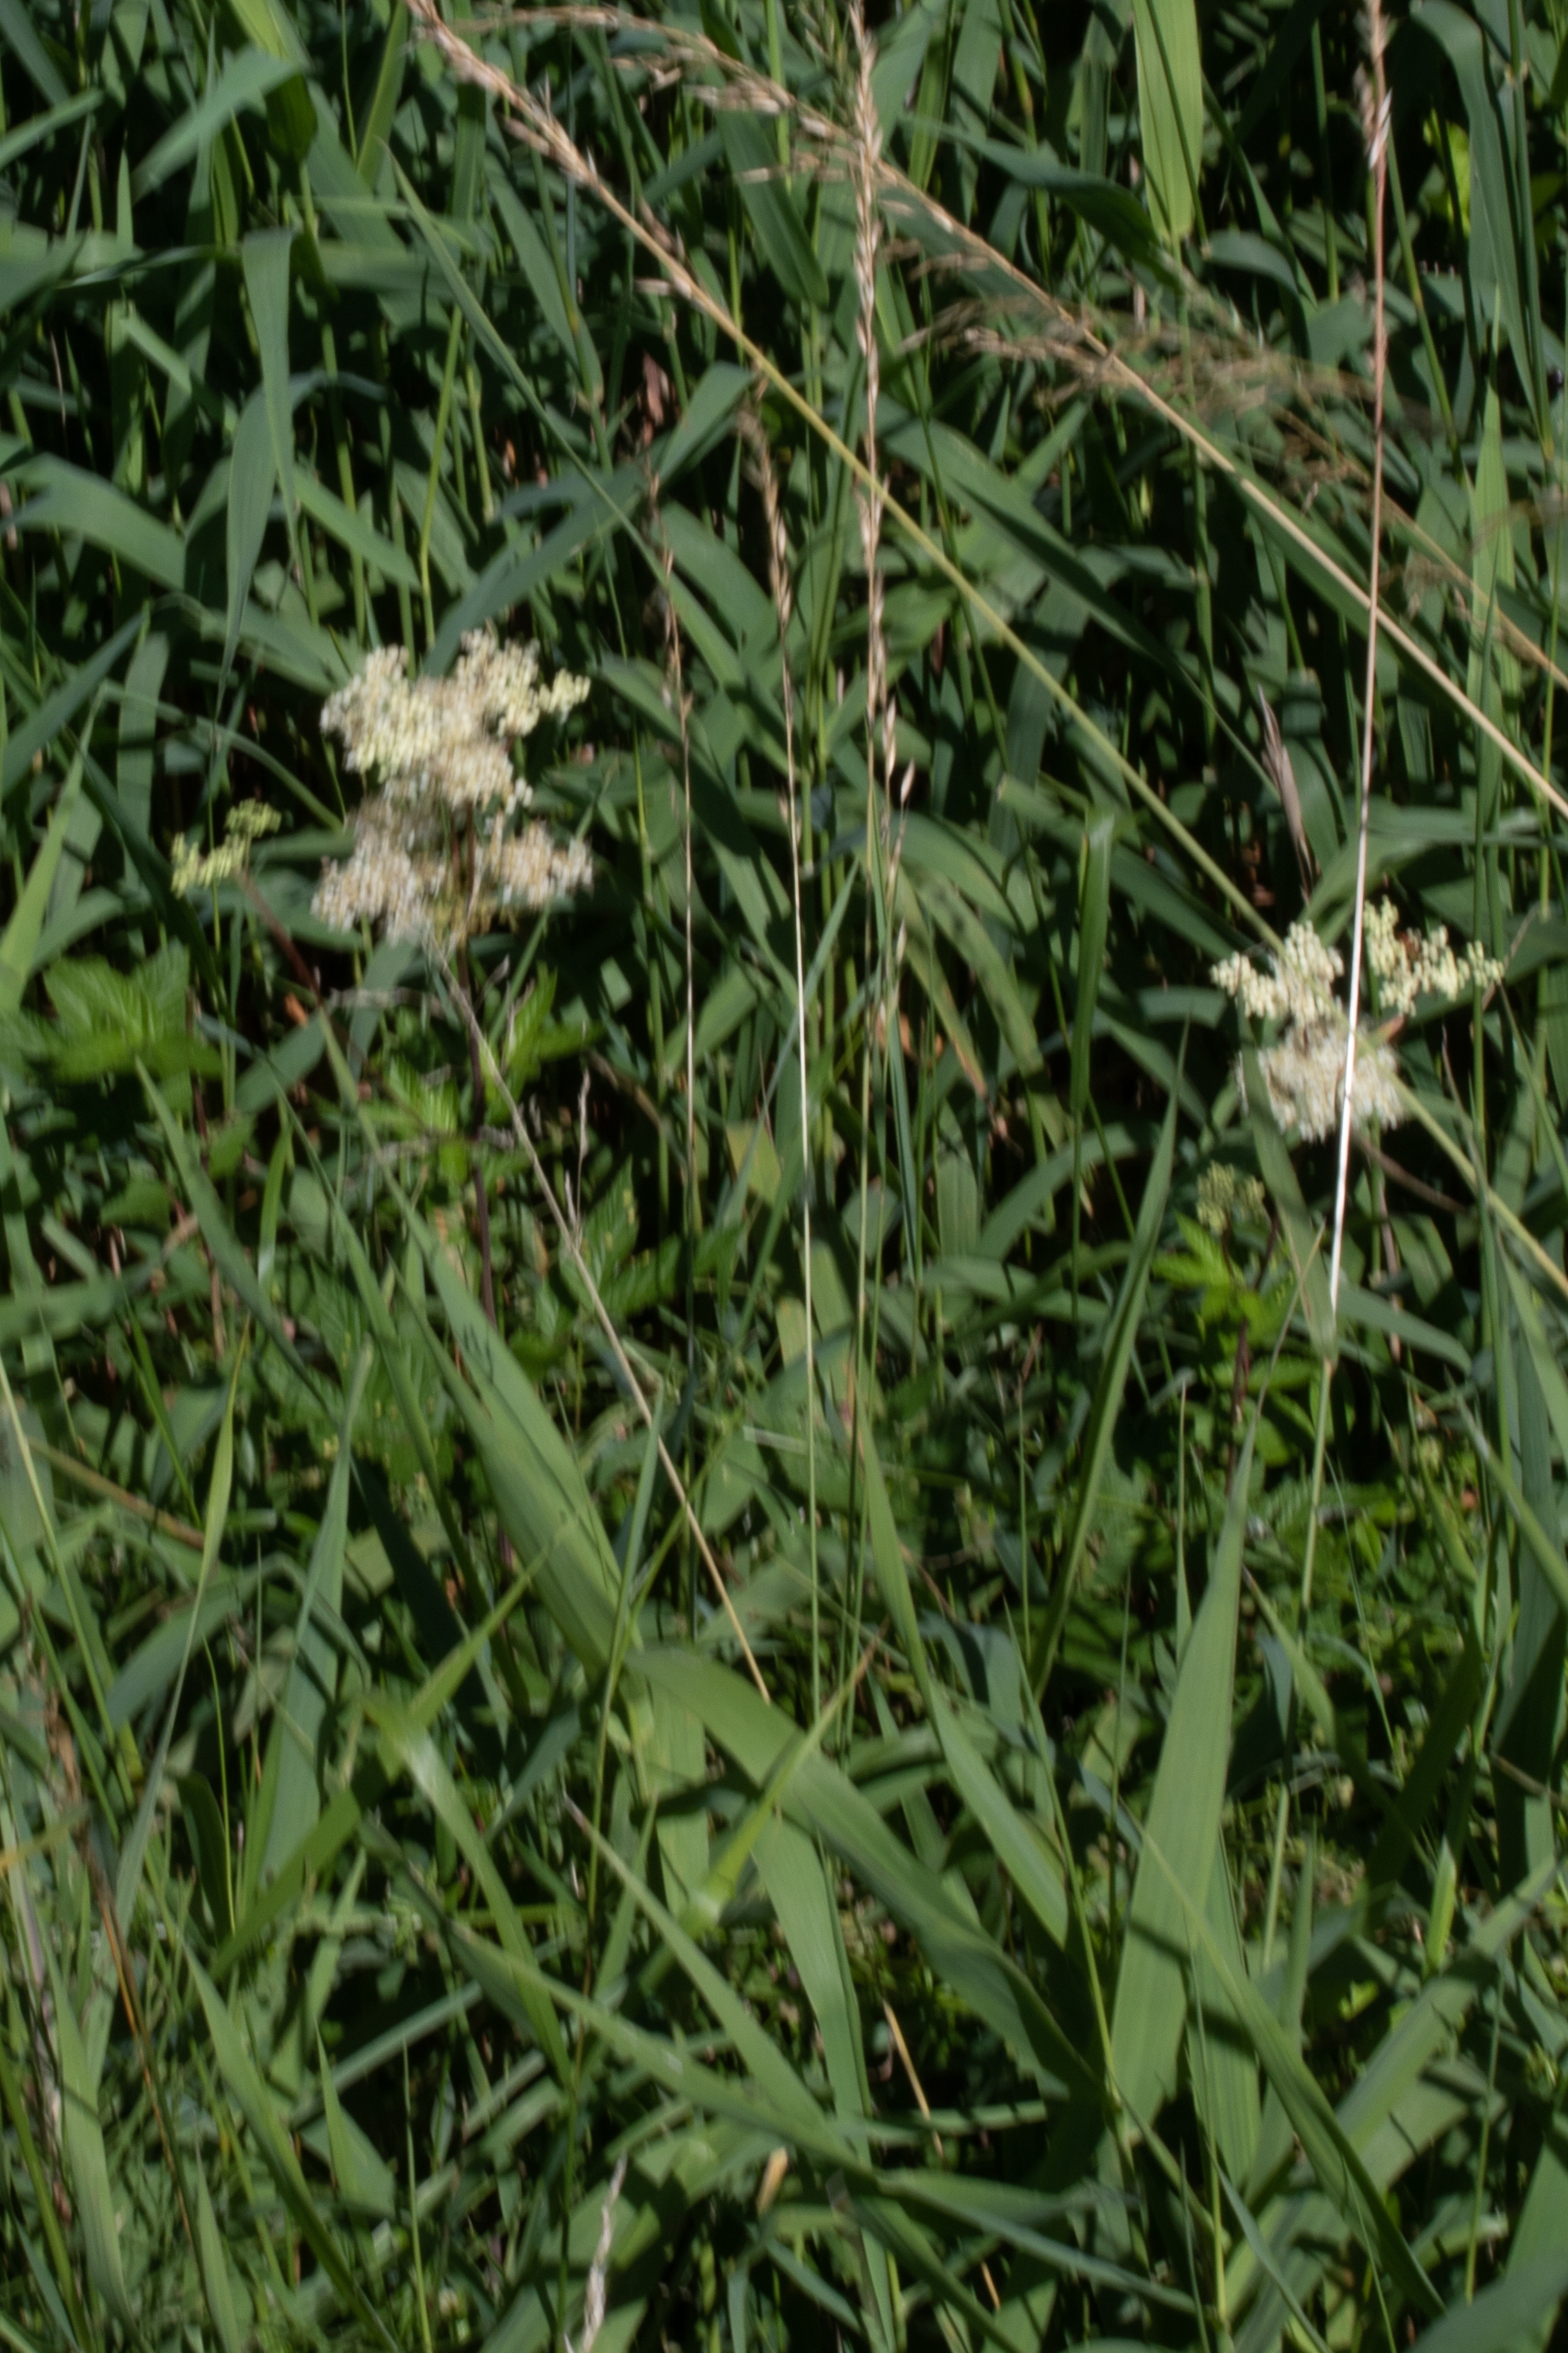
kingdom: Plantae
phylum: Tracheophyta
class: Magnoliopsida
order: Rosales
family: Rosaceae
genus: Filipendula
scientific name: Filipendula ulmaria
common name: Almindelig mjødurt
